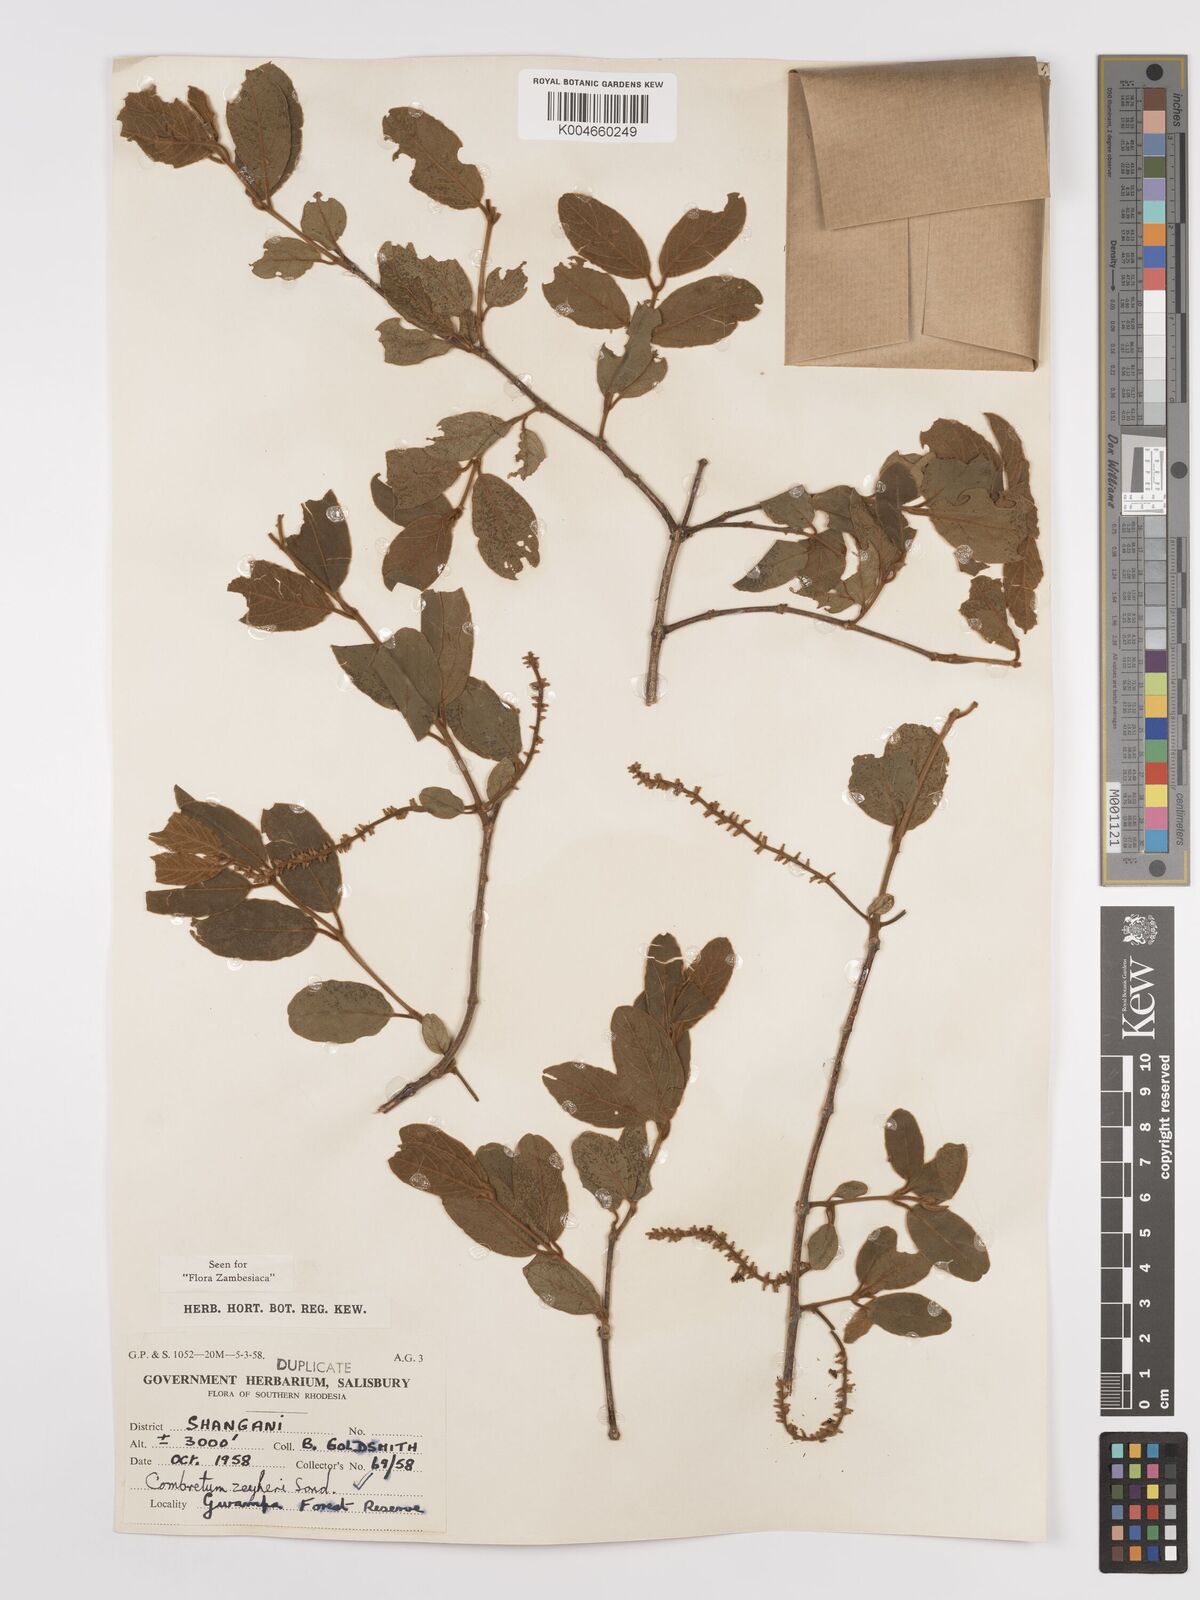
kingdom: Plantae
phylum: Tracheophyta
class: Magnoliopsida
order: Myrtales
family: Combretaceae
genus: Combretum
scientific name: Combretum zeyheri
